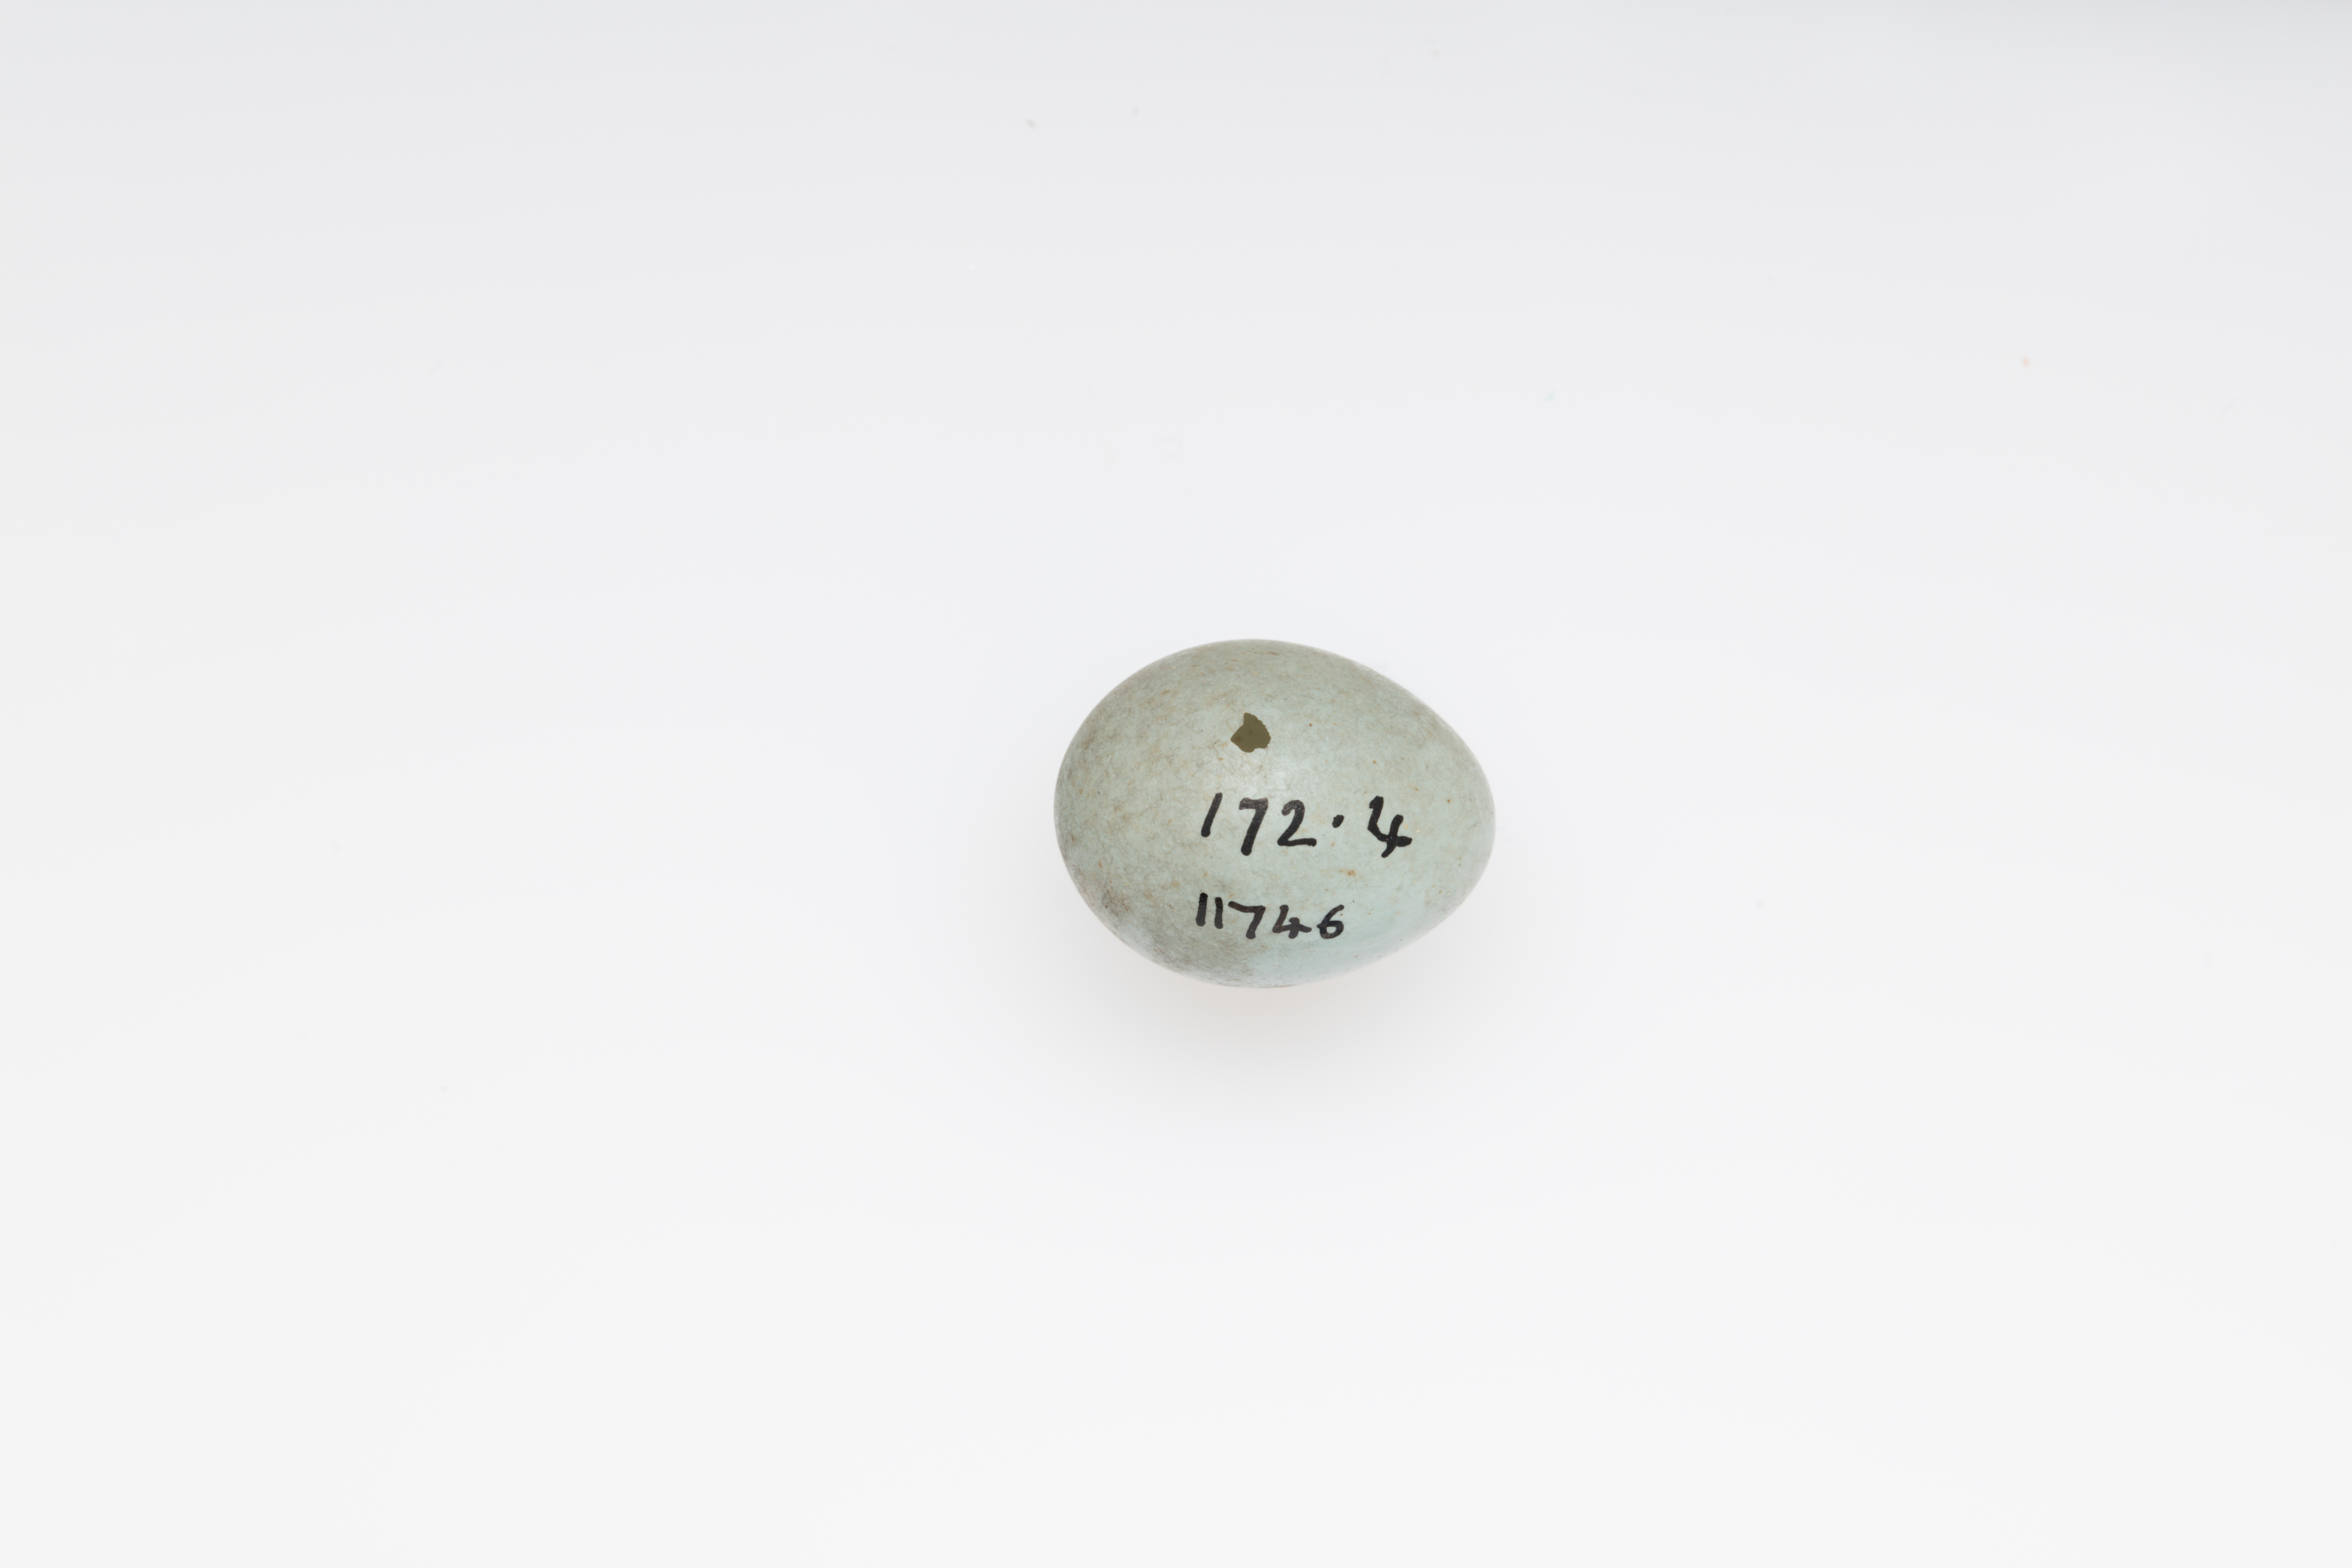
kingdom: Animalia
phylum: Chordata
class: Aves
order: Passeriformes
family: Prunellidae
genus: Prunella
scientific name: Prunella modularis
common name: Dunnock
